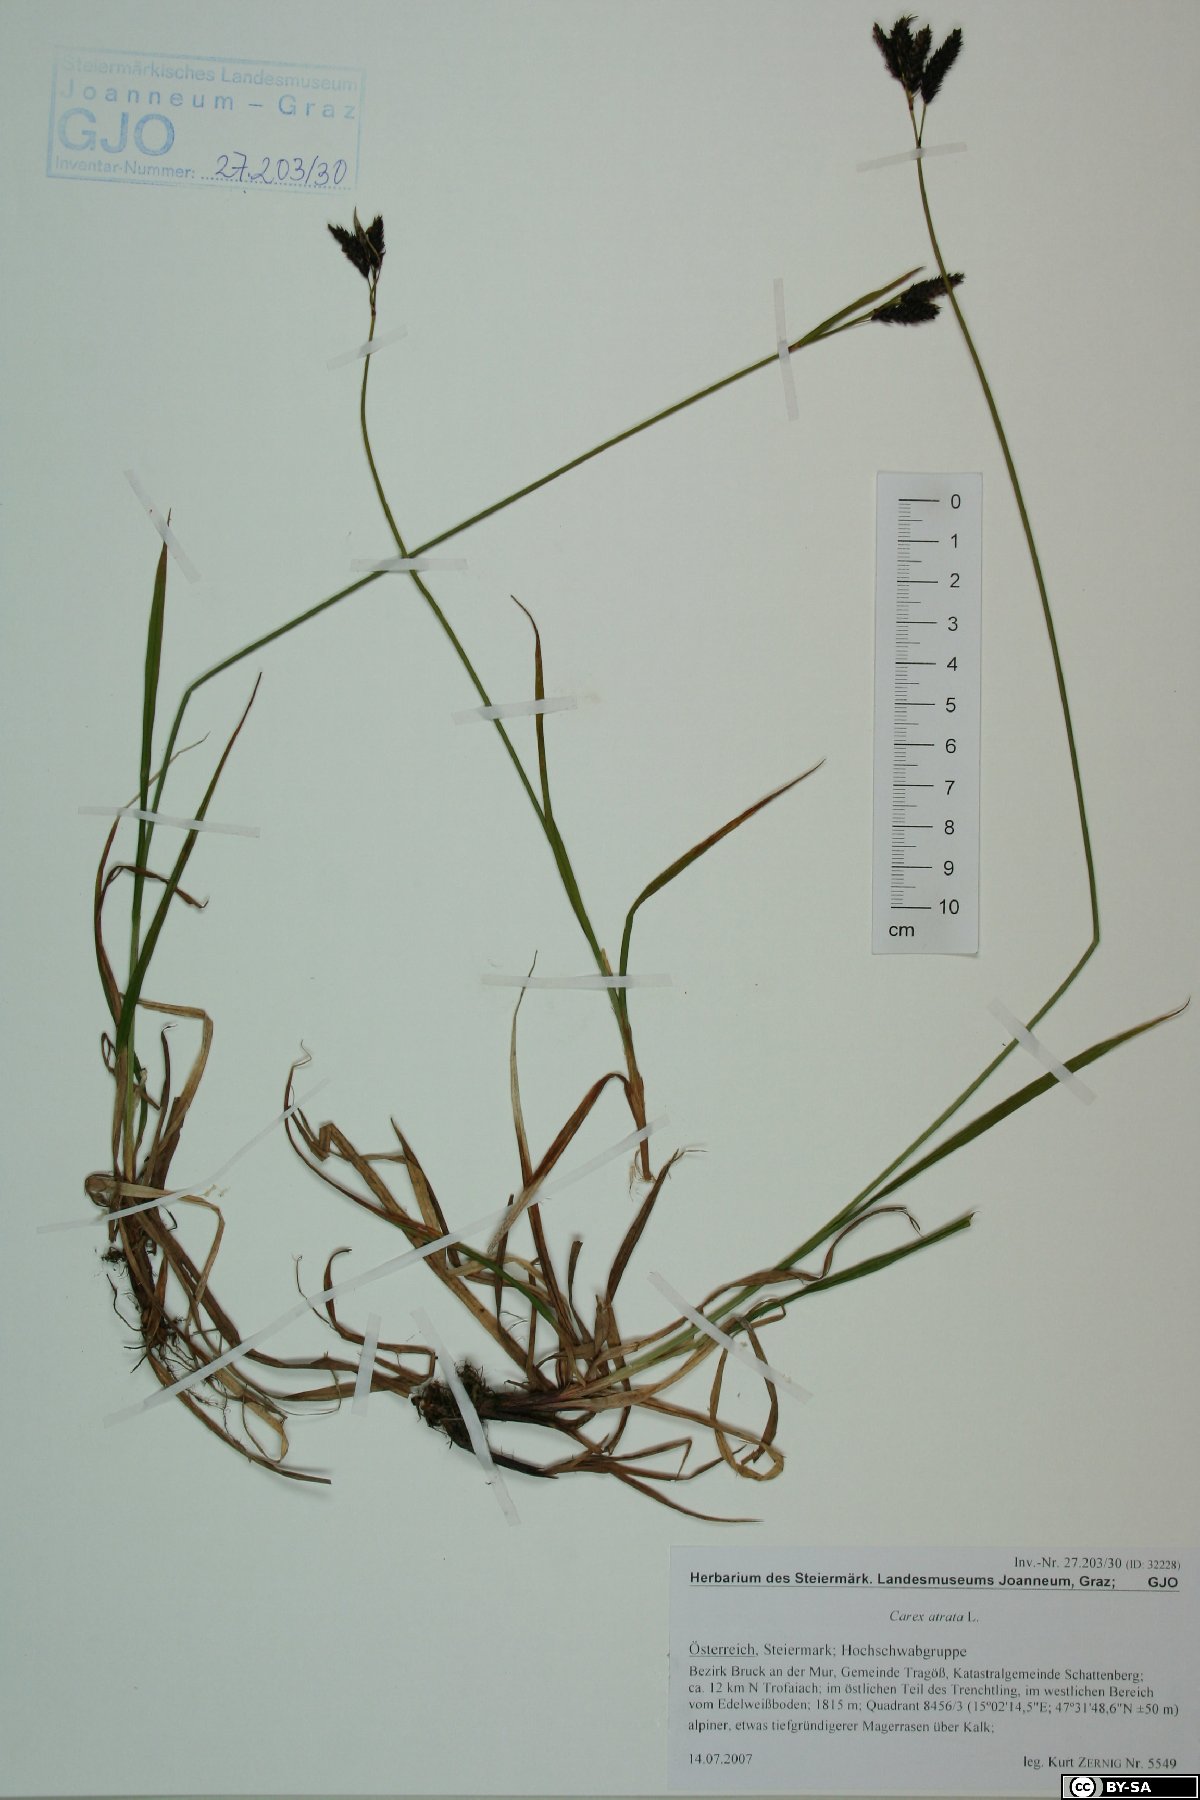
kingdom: Plantae
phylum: Tracheophyta
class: Liliopsida
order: Poales
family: Cyperaceae
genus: Carex
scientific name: Carex atrata
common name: Black alpine sedge
